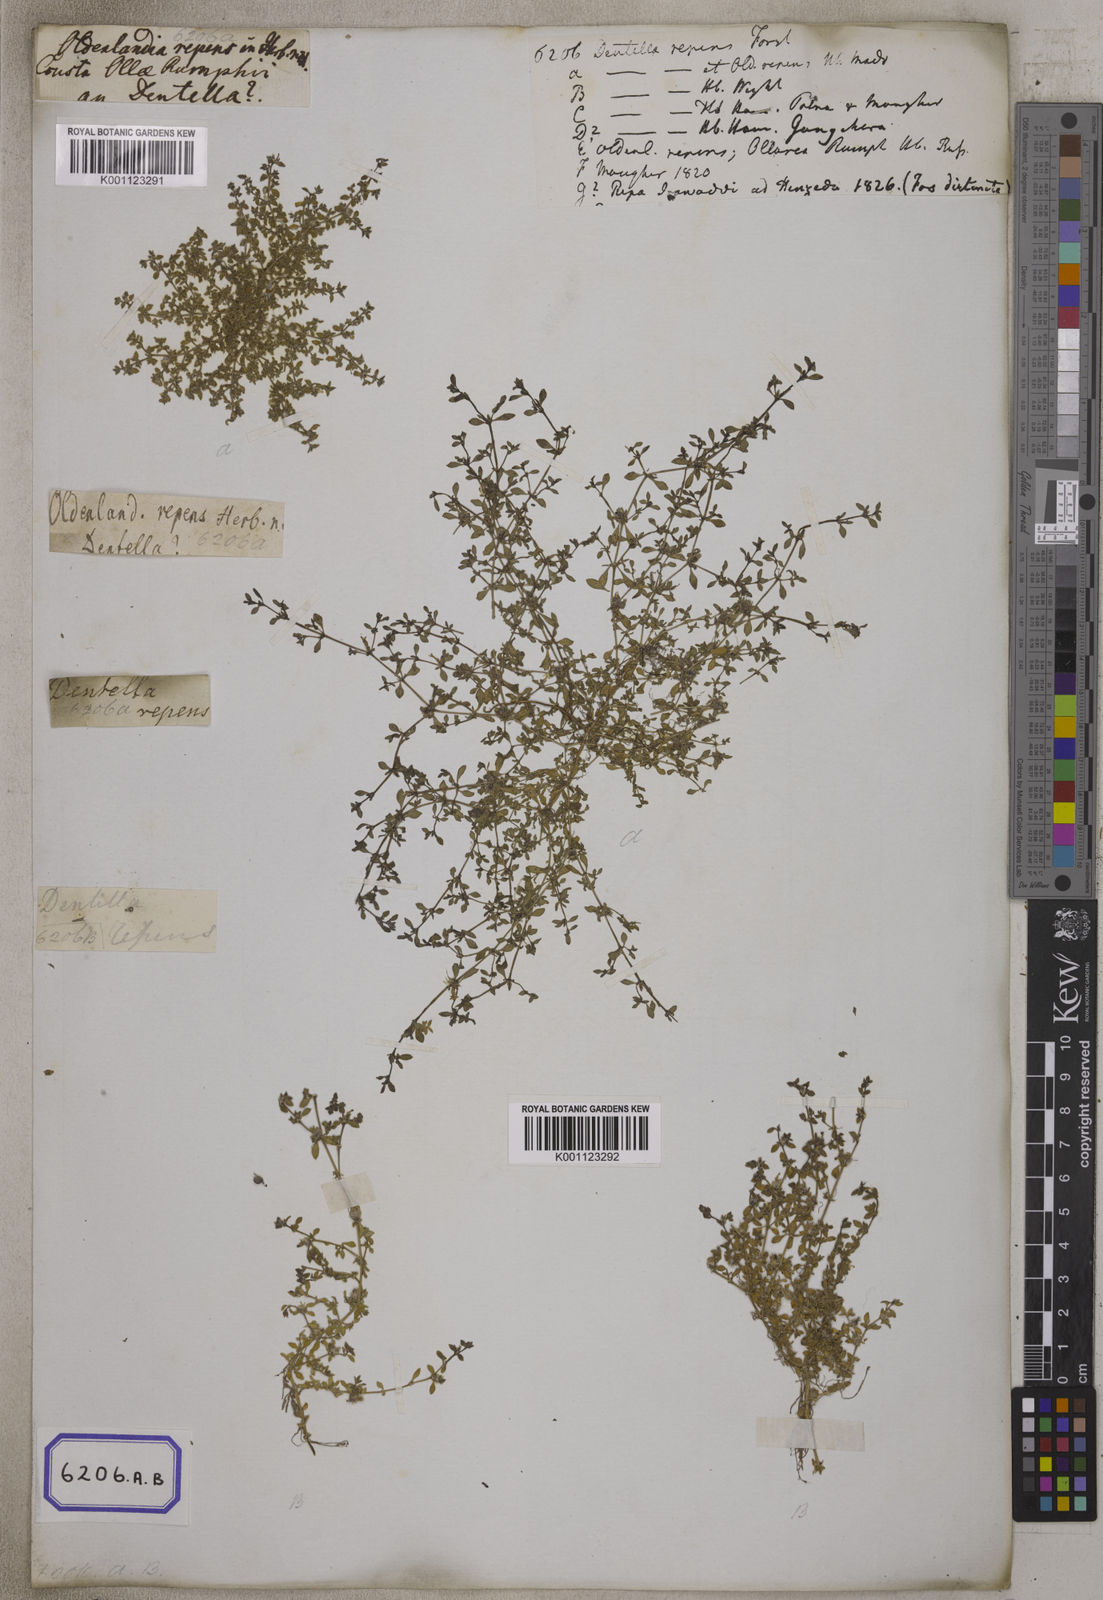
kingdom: Plantae
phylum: Tracheophyta
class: Magnoliopsida
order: Gentianales
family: Rubiaceae
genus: Dentella
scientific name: Dentella repens
